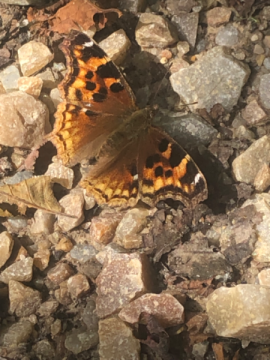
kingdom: Animalia
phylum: Arthropoda
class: Insecta
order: Lepidoptera
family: Nymphalidae
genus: Polygonia
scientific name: Polygonia vaualbum
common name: Compton Tortoiseshell
